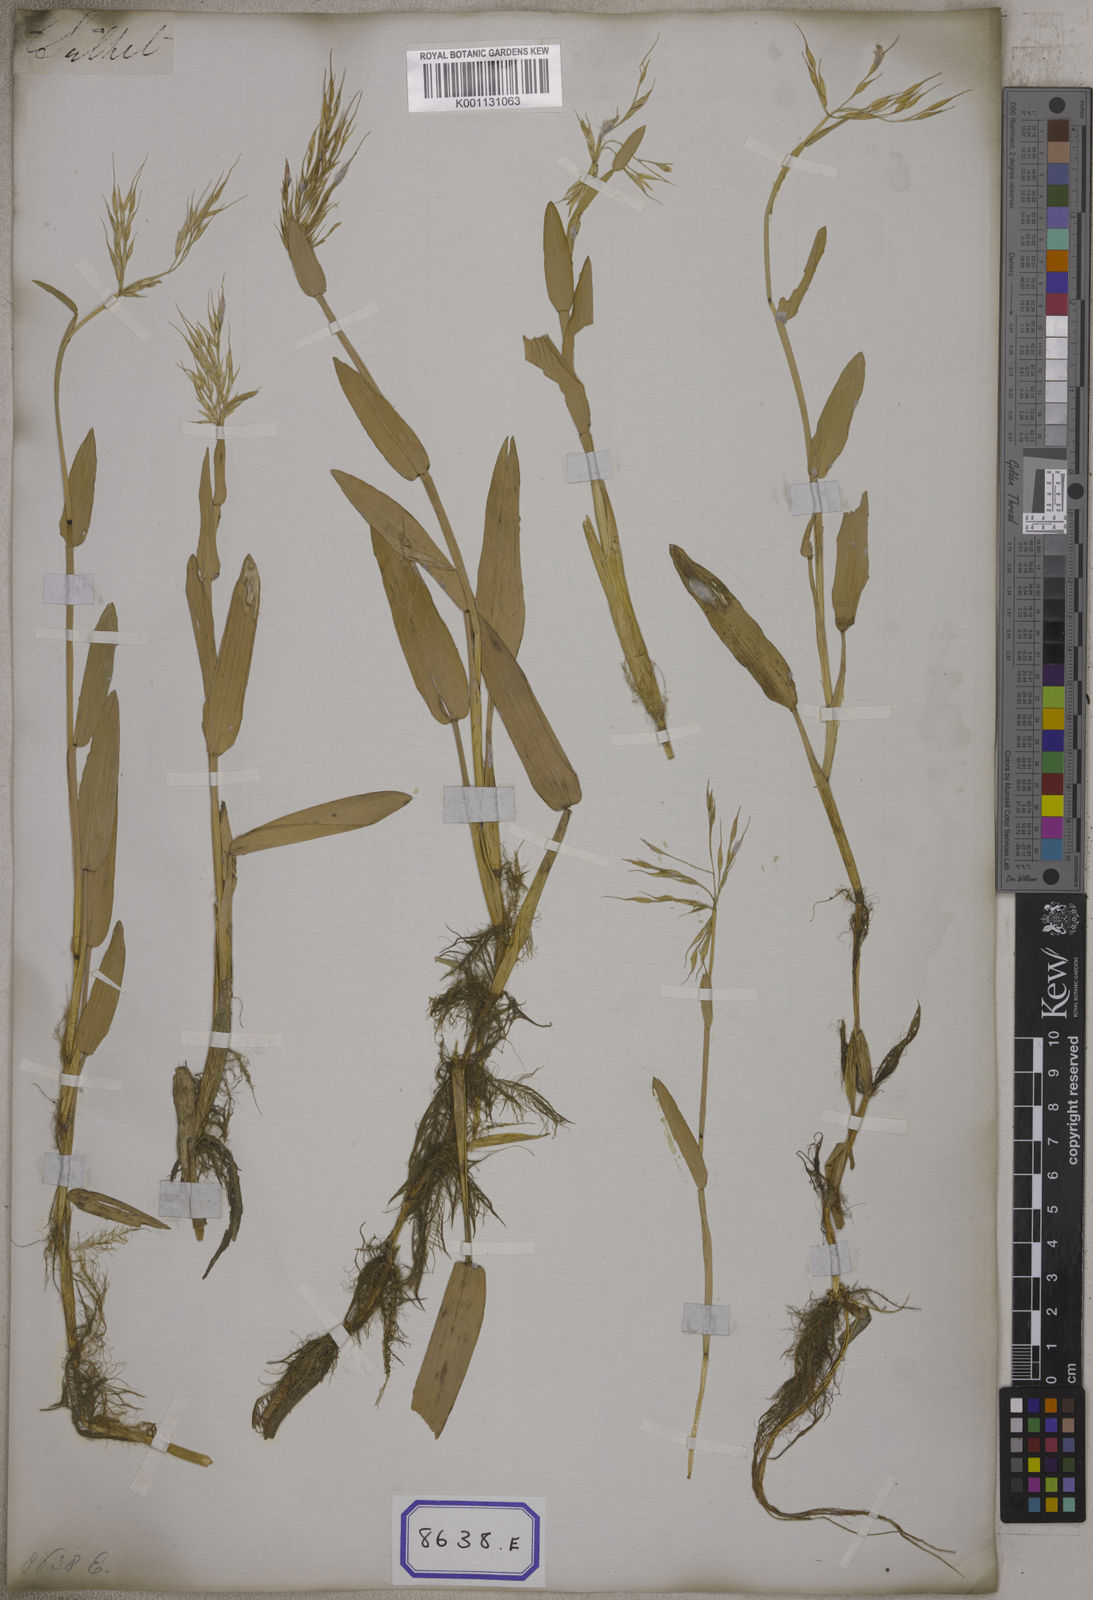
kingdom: Plantae
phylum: Tracheophyta
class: Liliopsida
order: Poales
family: Poaceae
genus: Hygroryza
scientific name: Hygroryza
